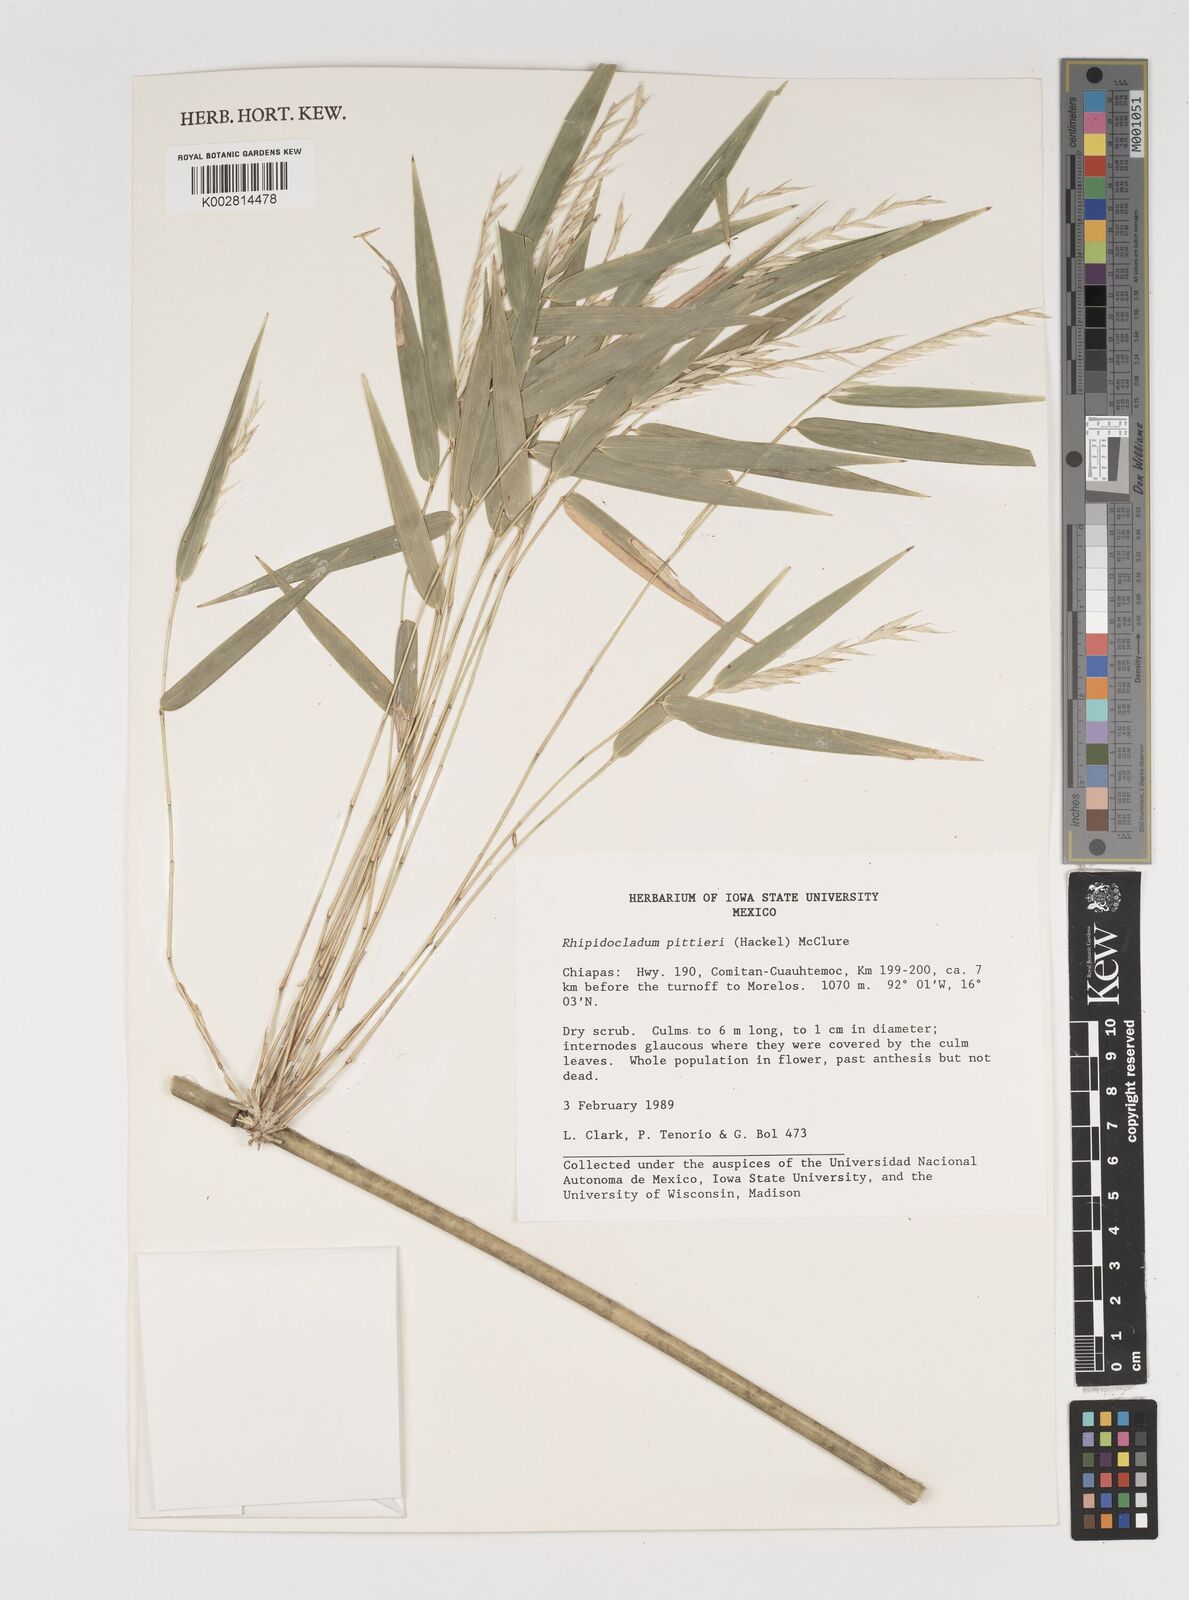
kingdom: Plantae
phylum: Tracheophyta
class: Liliopsida
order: Poales
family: Poaceae
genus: Rhipidocladum
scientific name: Rhipidocladum pittieri
